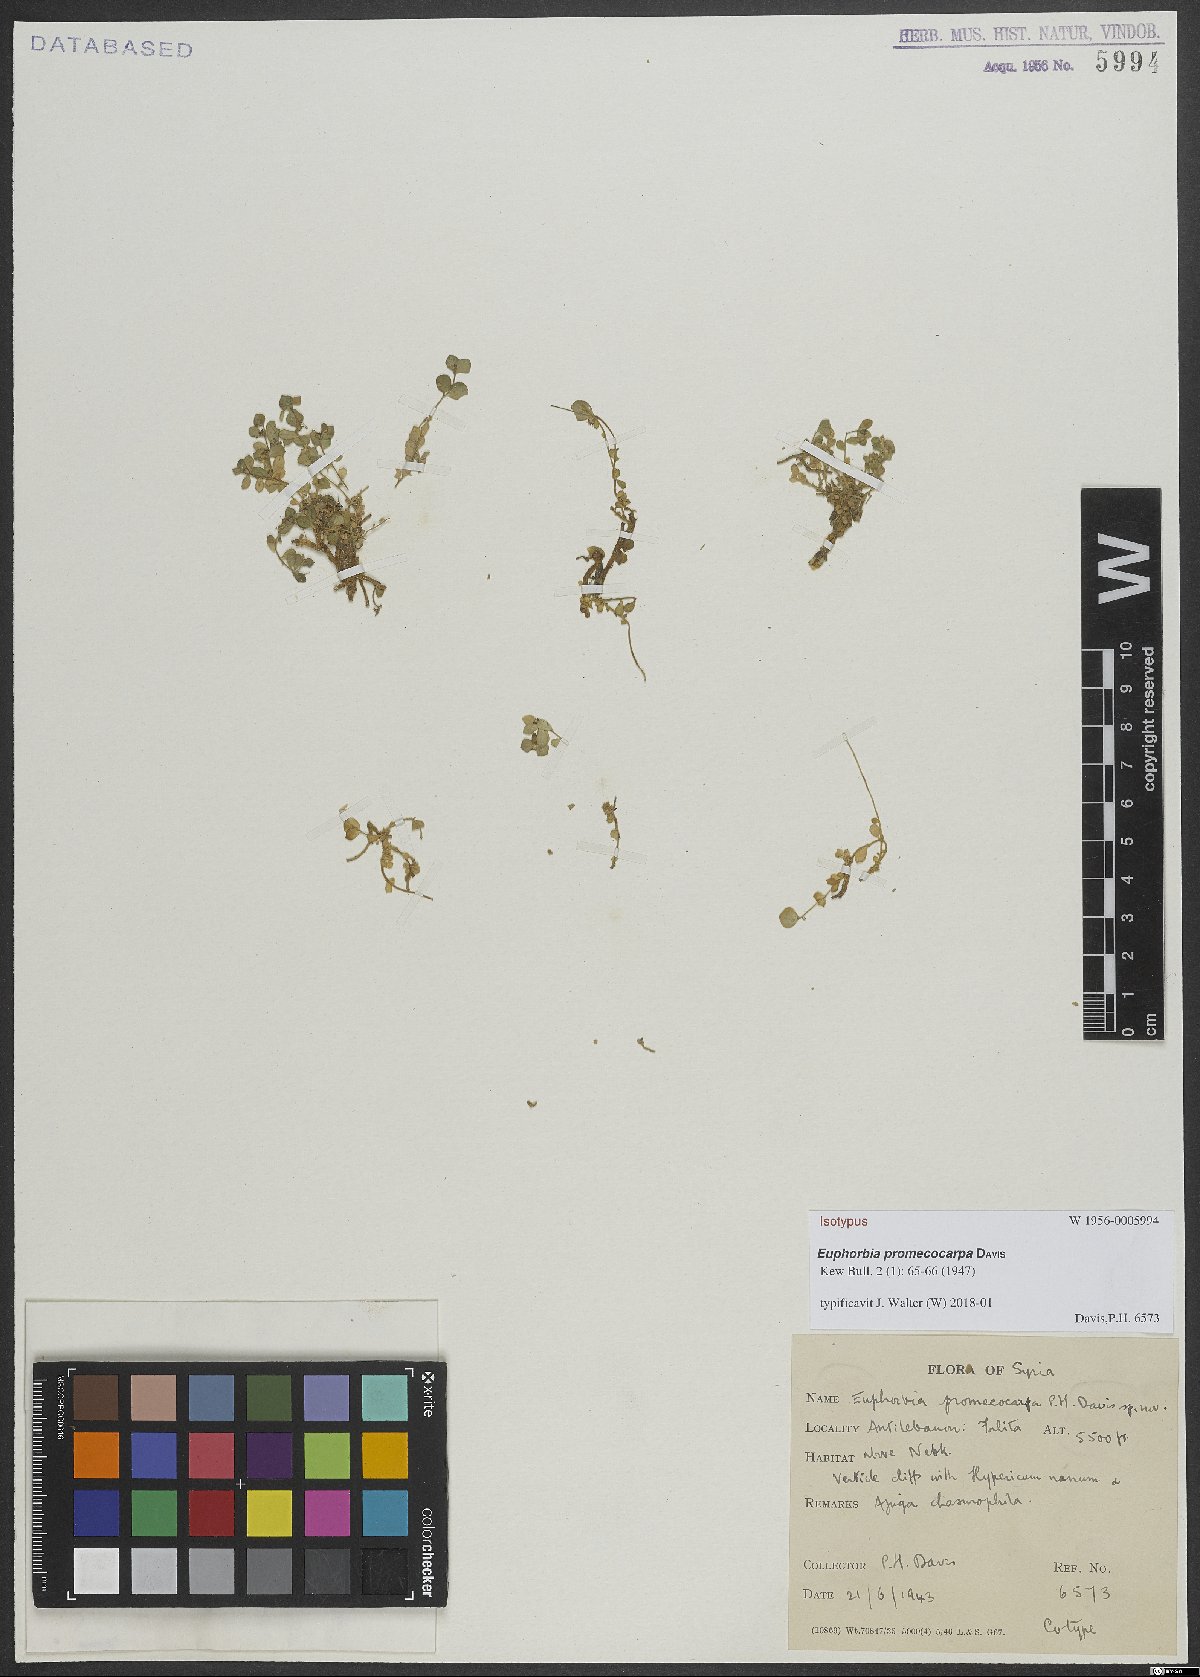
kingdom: Plantae
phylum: Tracheophyta
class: Magnoliopsida
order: Malpighiales
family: Euphorbiaceae
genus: Euphorbia
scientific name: Euphorbia promecocarpa
